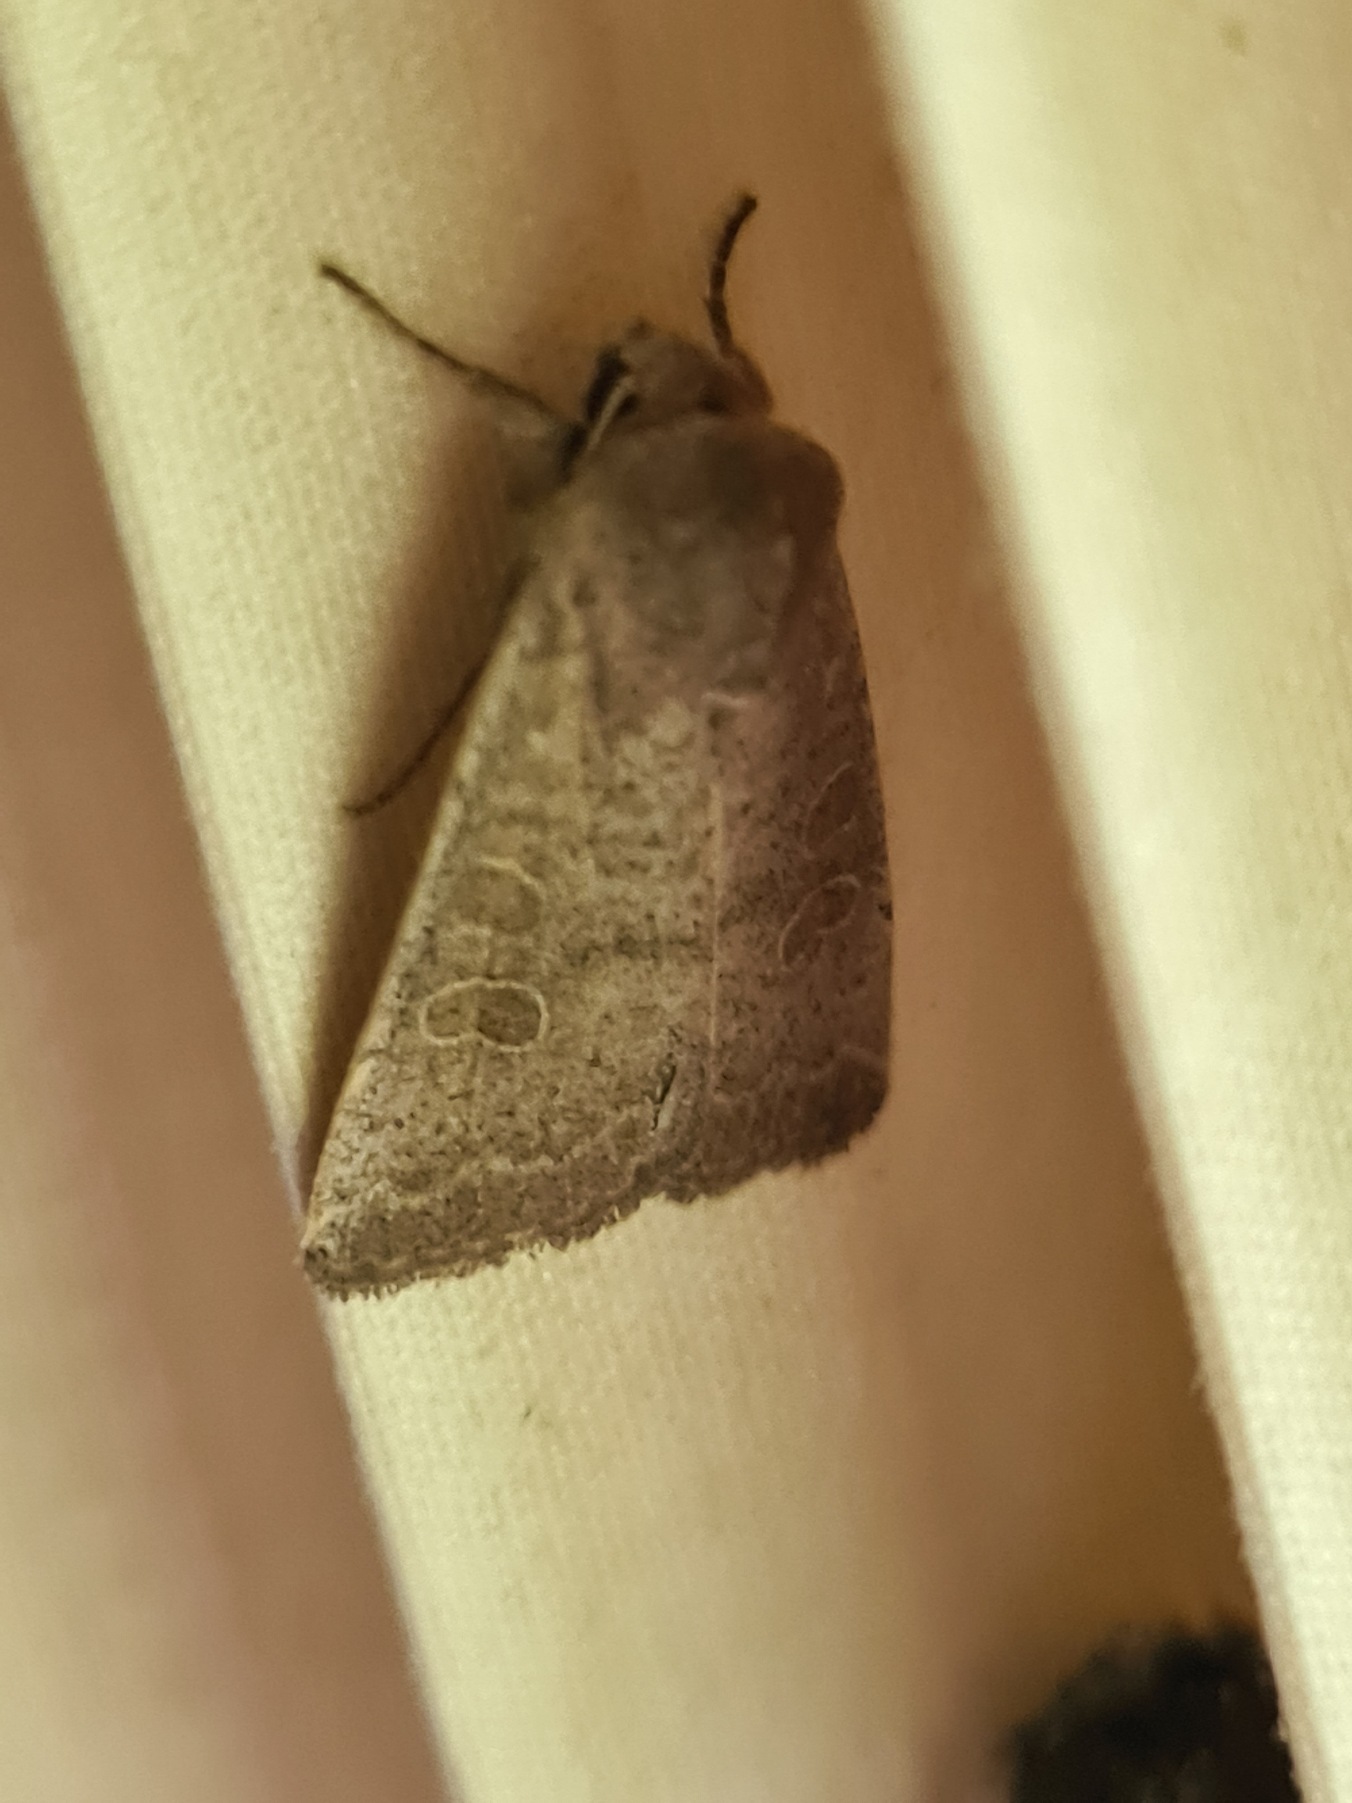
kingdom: Animalia
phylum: Arthropoda
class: Insecta
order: Lepidoptera
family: Noctuidae
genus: Hoplodrina
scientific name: Hoplodrina ambigua
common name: Tvivlsom mus
